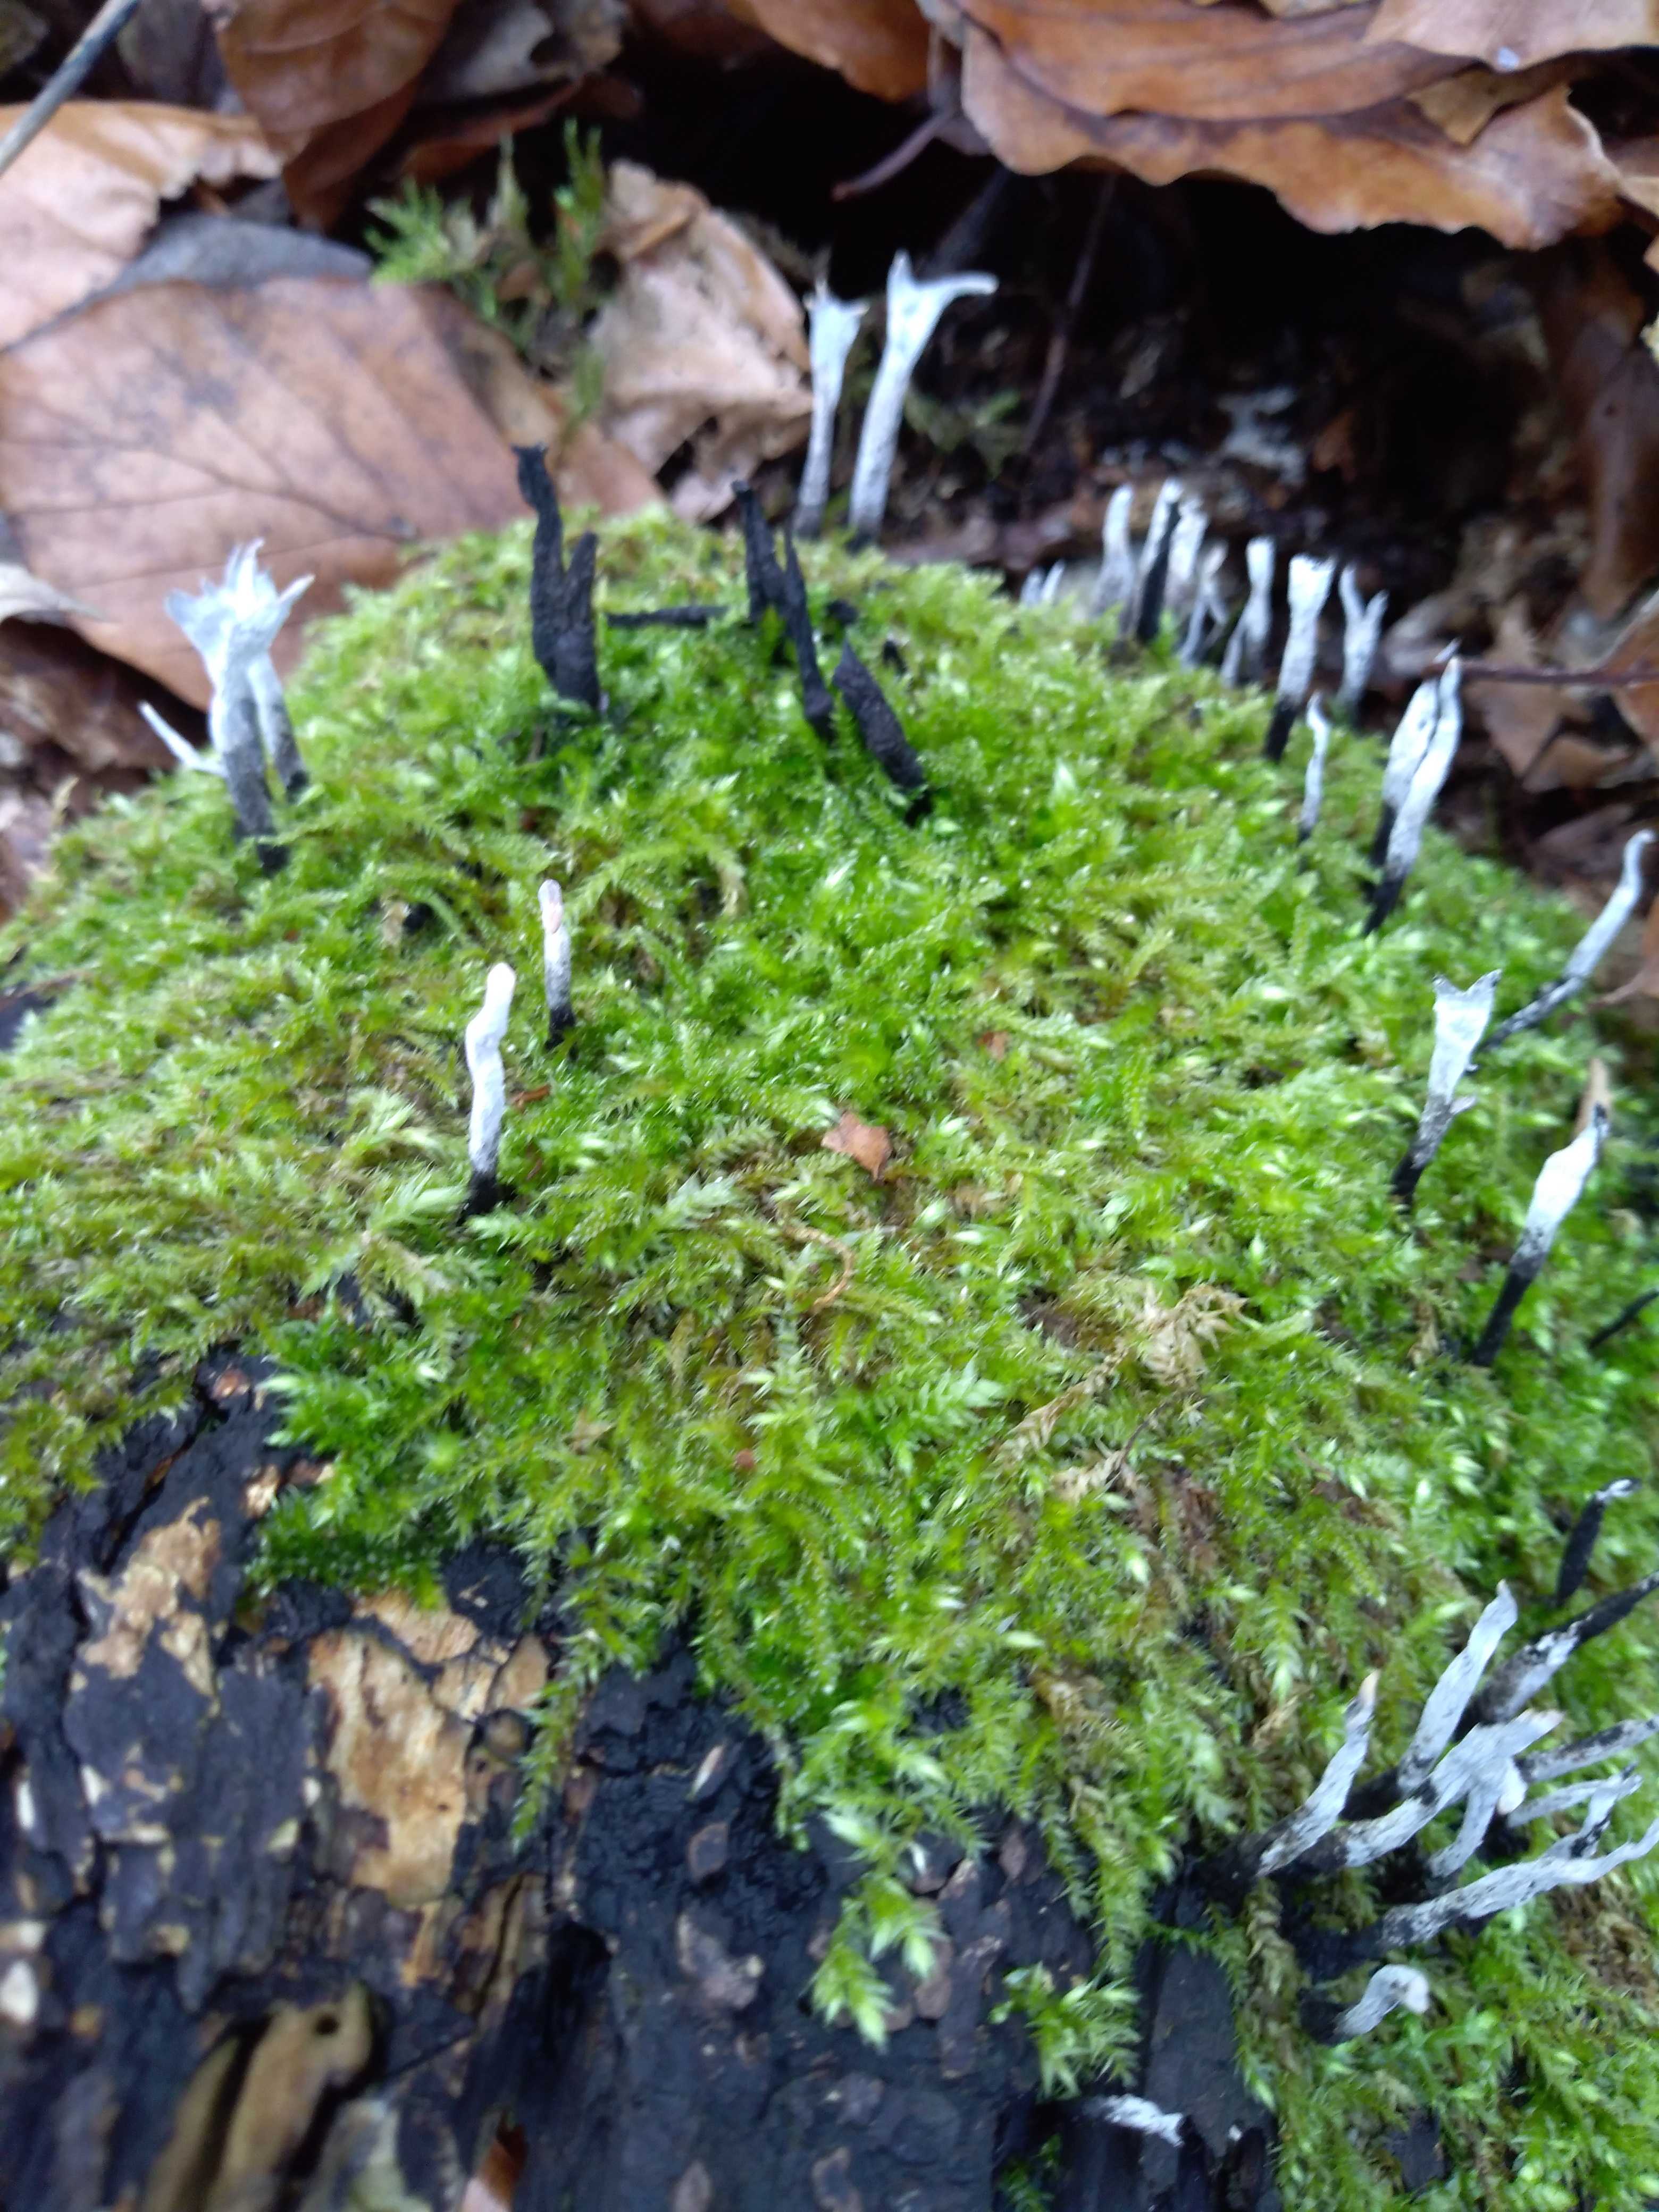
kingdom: Fungi
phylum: Ascomycota
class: Sordariomycetes
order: Xylariales
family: Xylariaceae
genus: Xylaria
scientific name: Xylaria hypoxylon
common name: grenet stødsvamp
